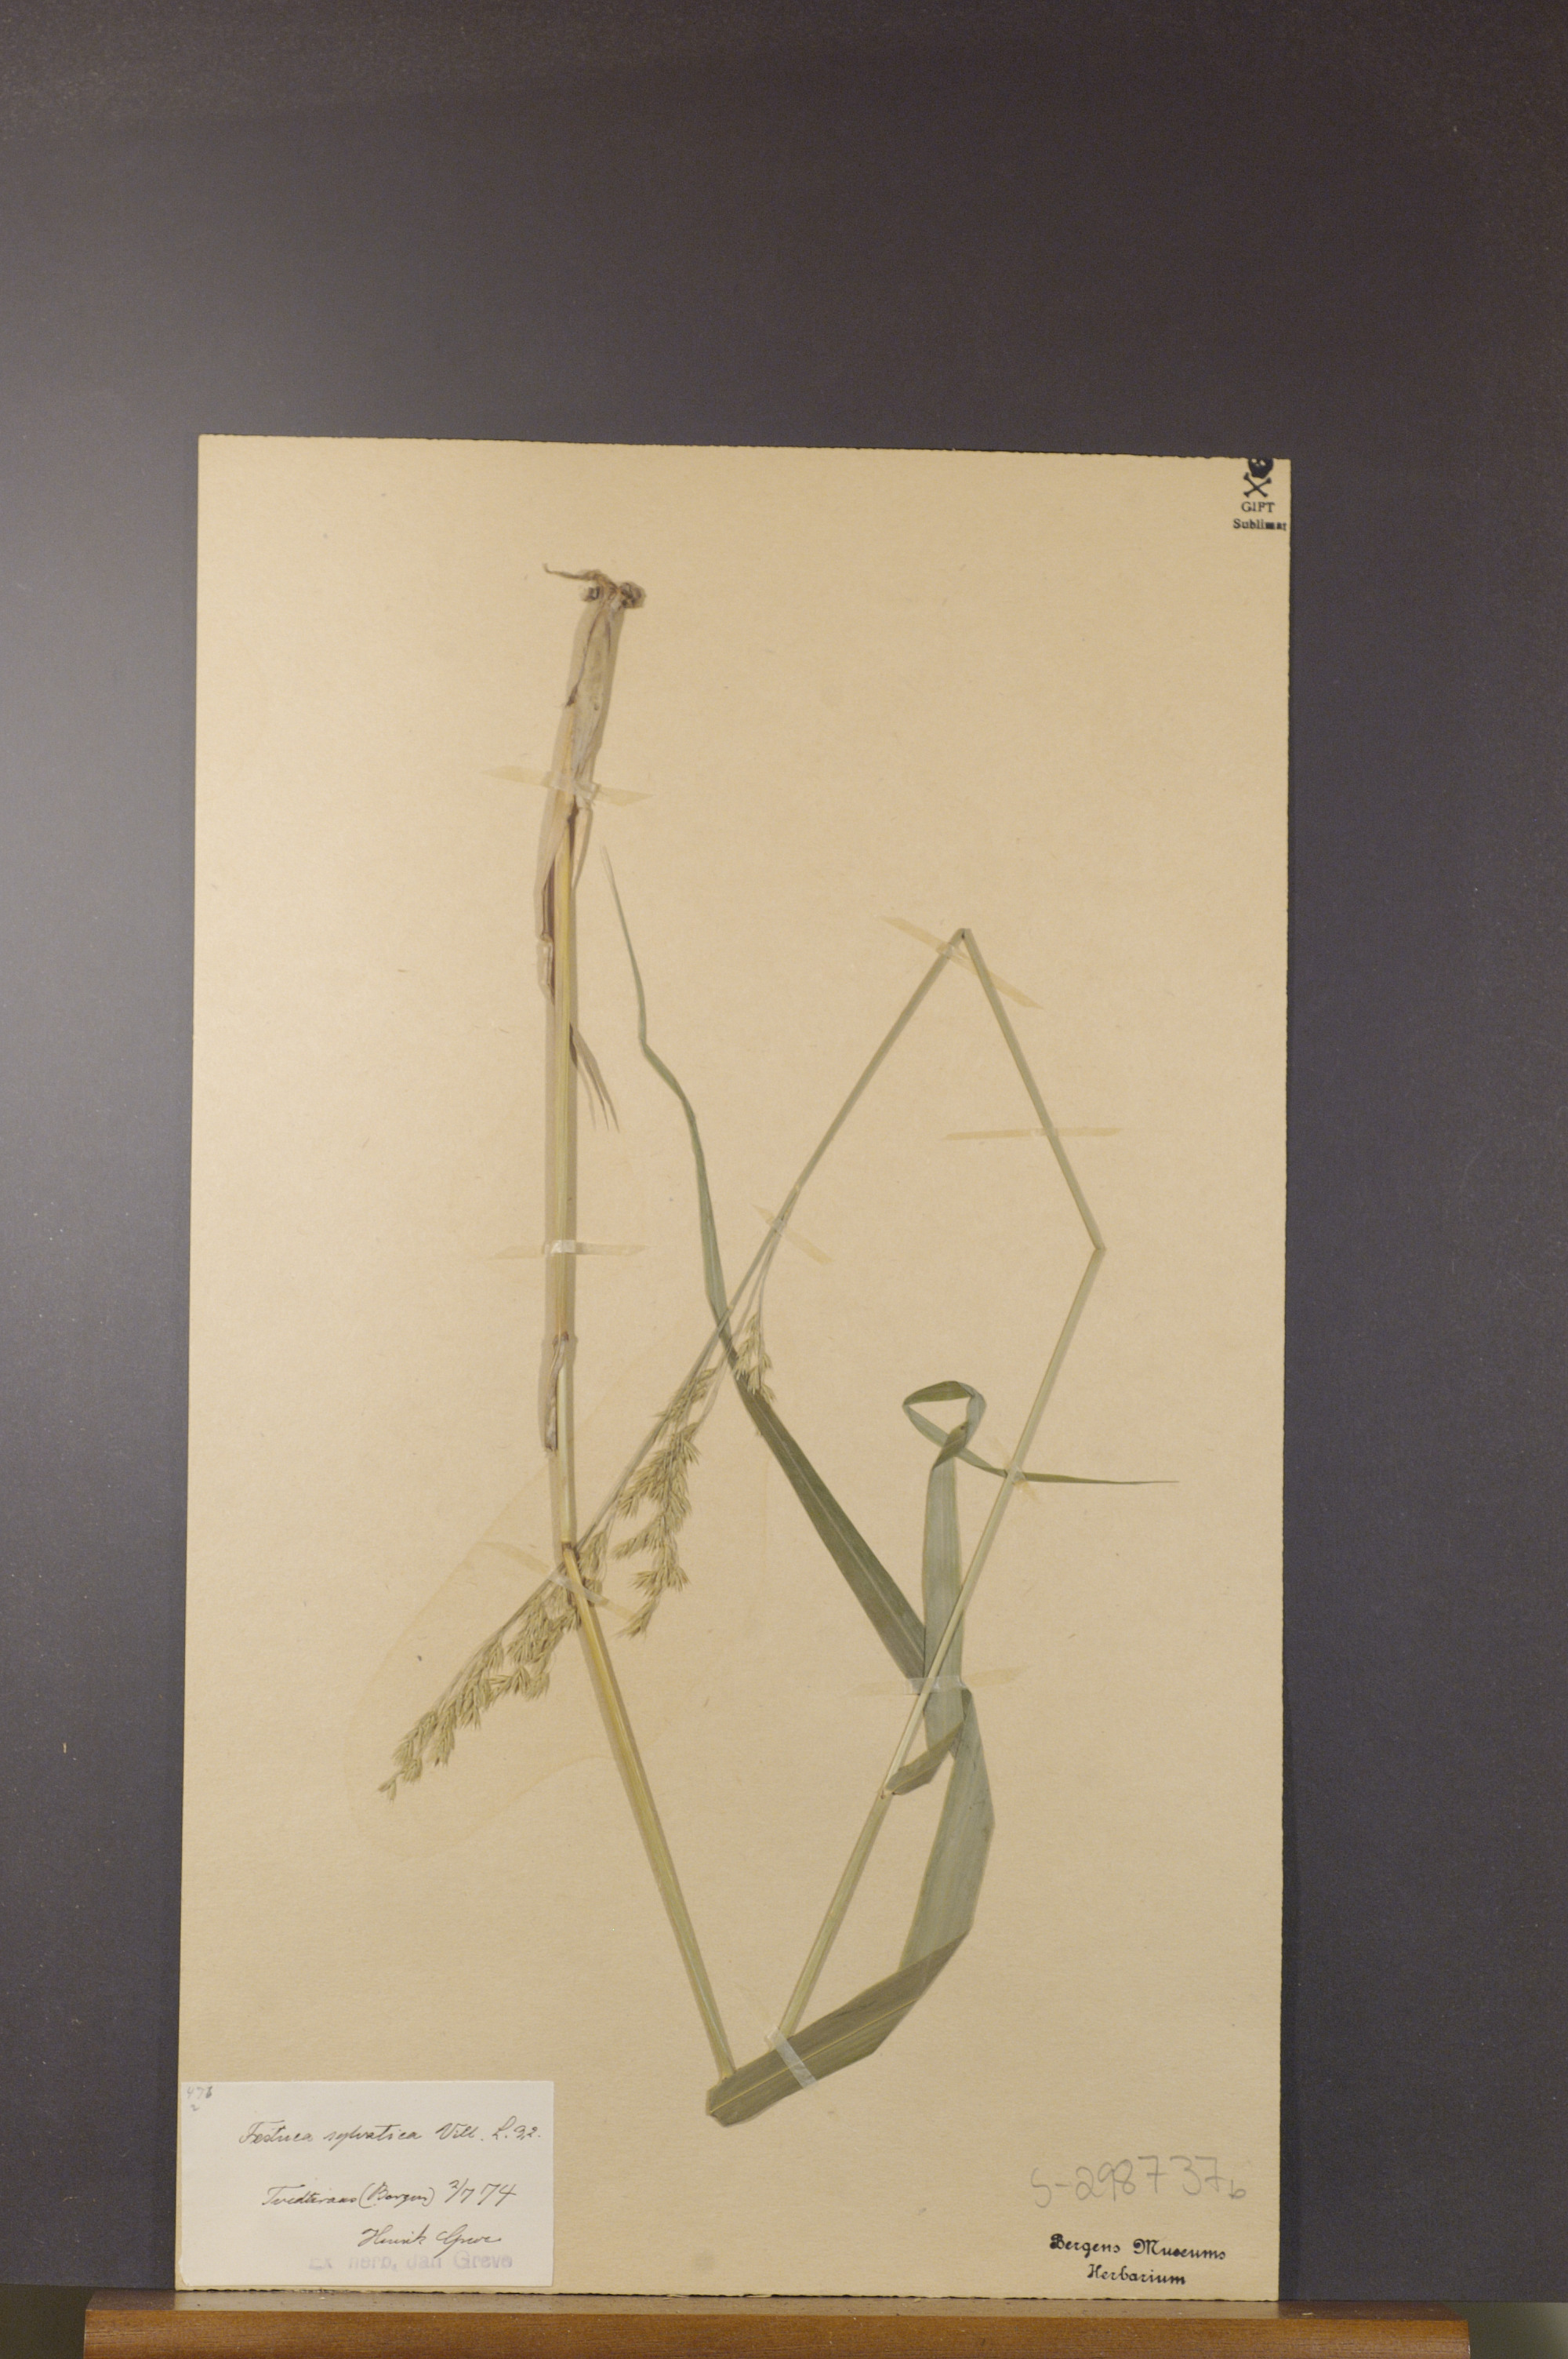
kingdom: Plantae
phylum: Tracheophyta
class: Liliopsida
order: Poales
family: Poaceae
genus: Festuca
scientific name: Festuca altissima
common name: Wood fescue
